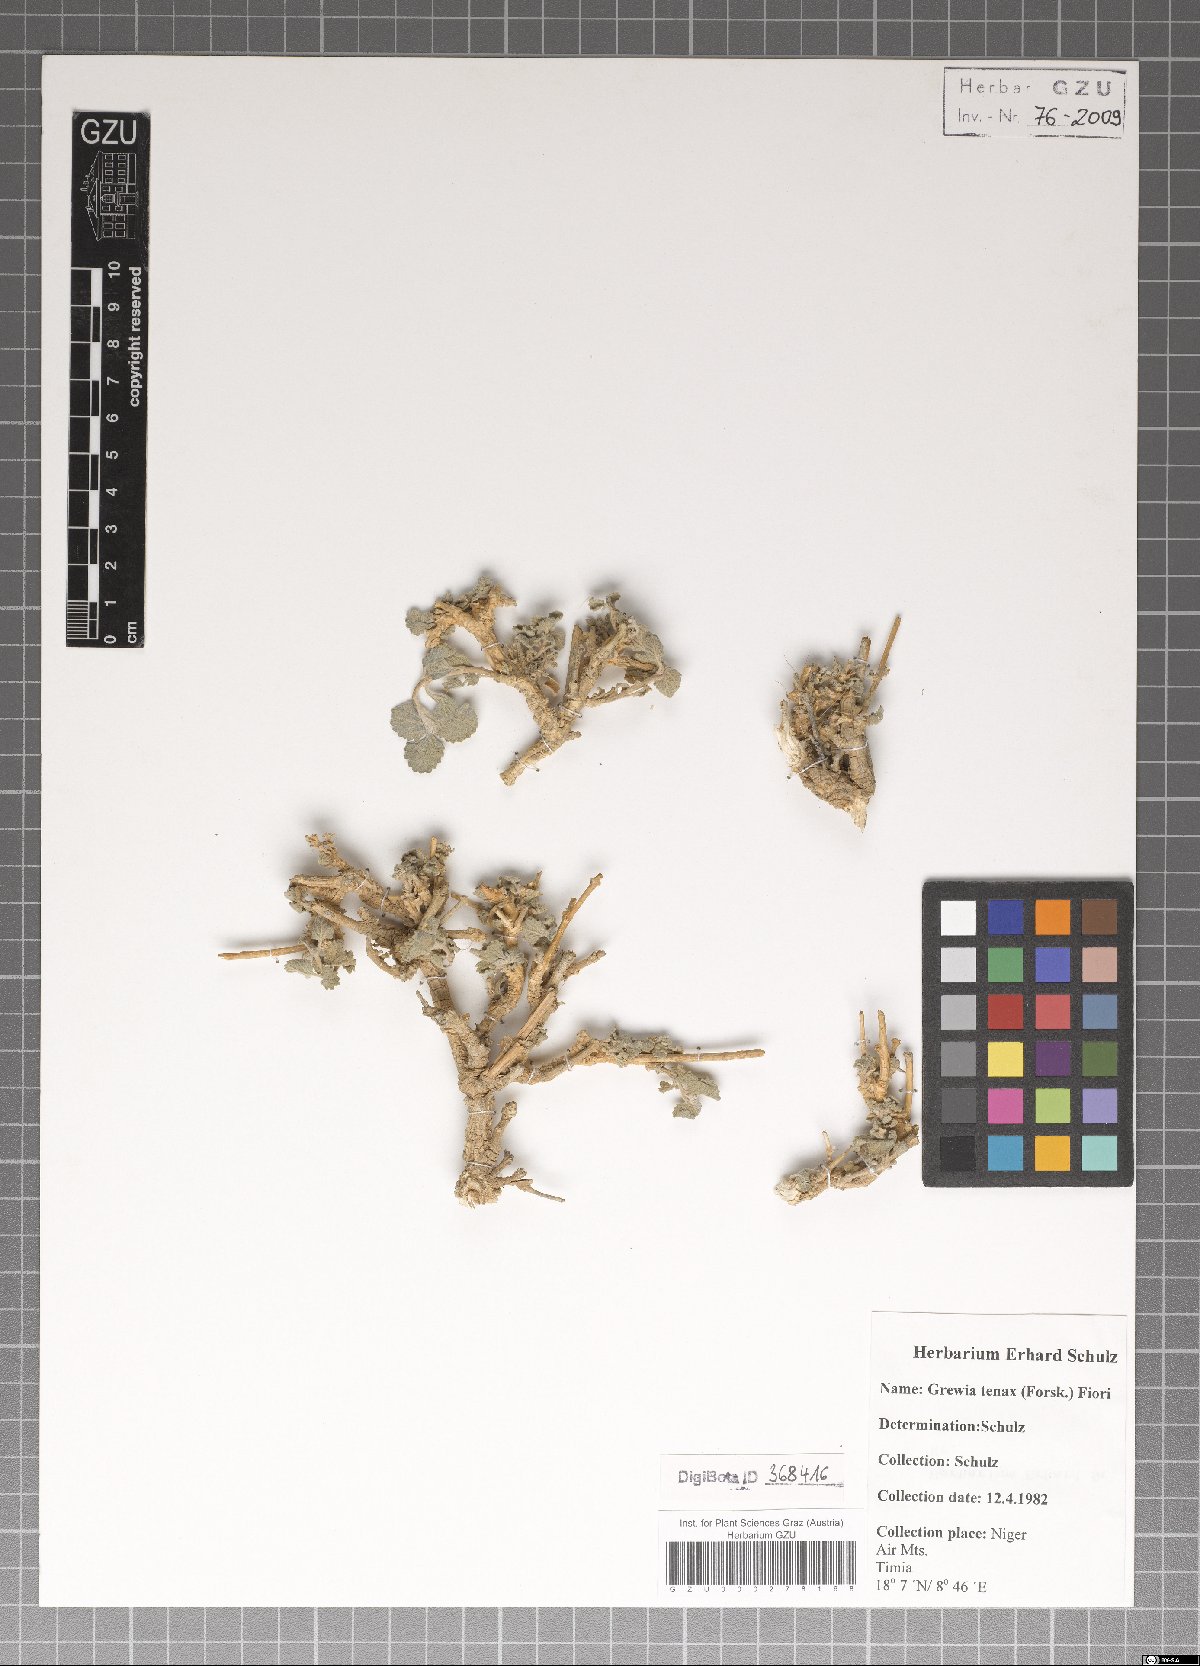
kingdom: Plantae
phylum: Tracheophyta
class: Magnoliopsida
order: Malvales
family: Malvaceae
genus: Grewia
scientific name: Grewia tenax
